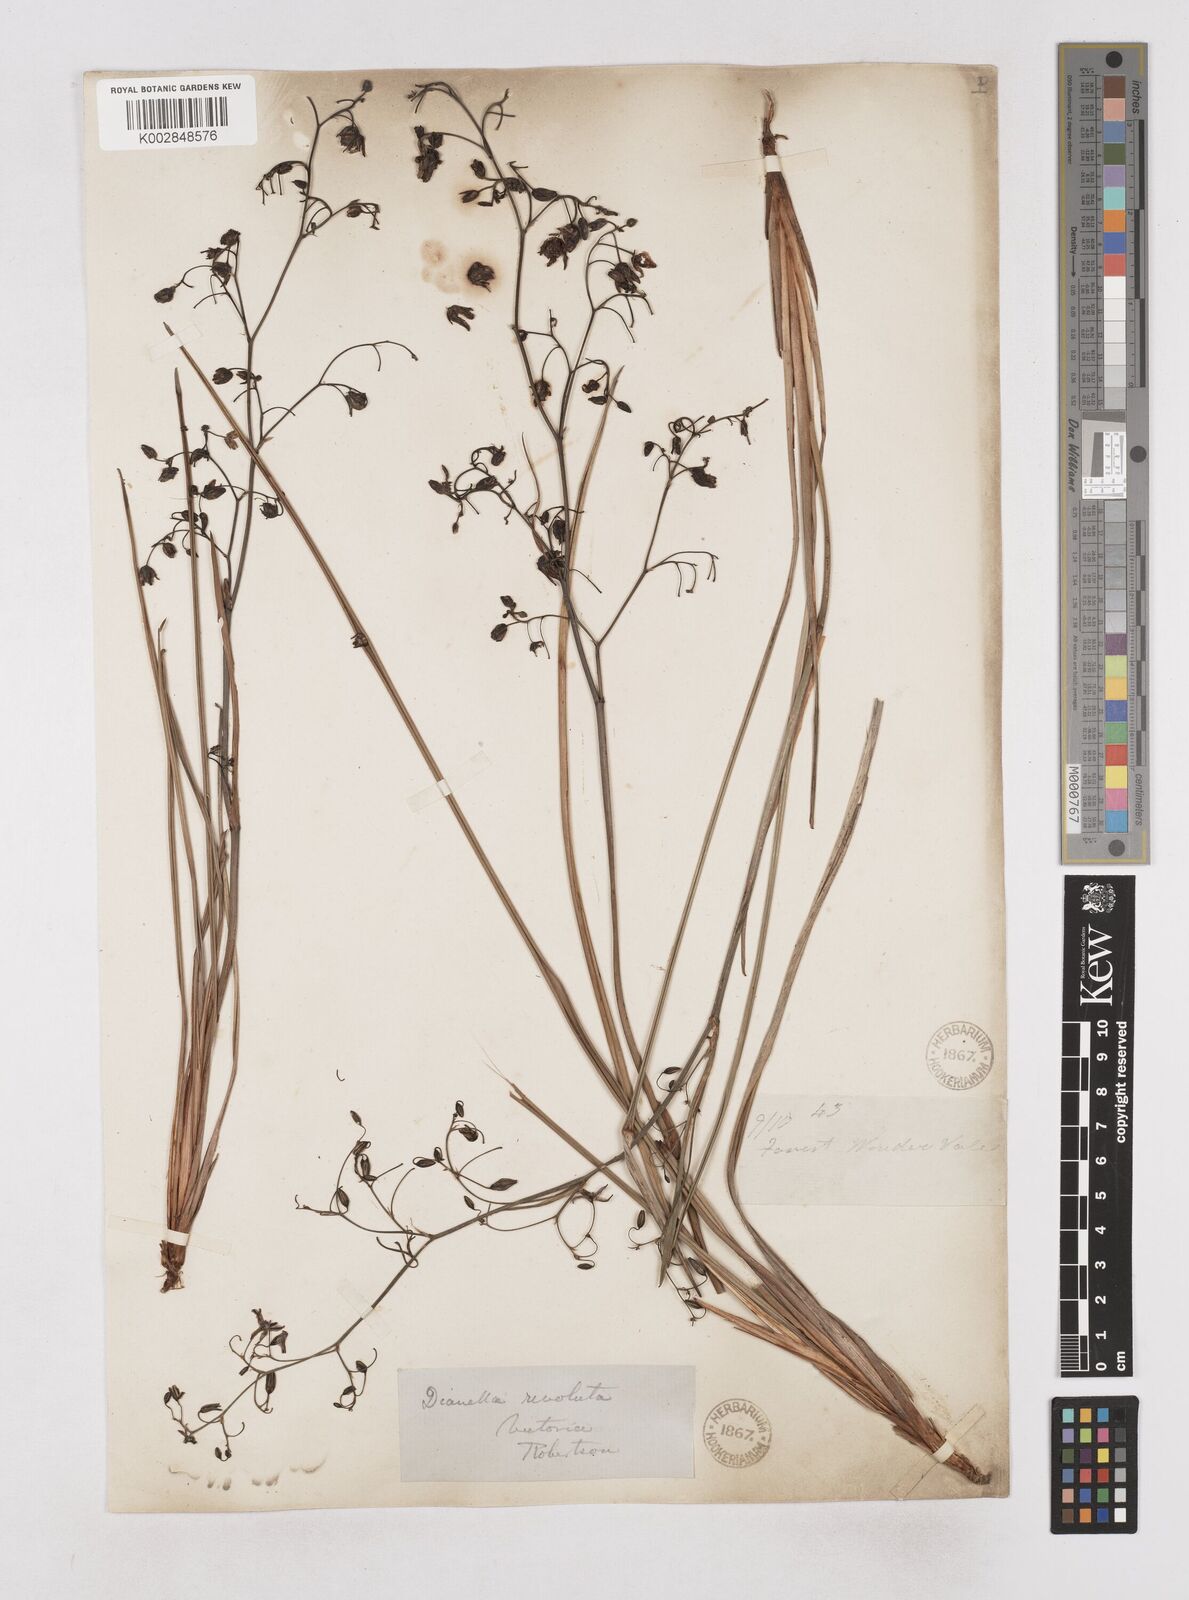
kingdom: Plantae
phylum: Tracheophyta
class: Liliopsida
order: Asparagales
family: Asphodelaceae
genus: Dianella
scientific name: Dianella revoluta
